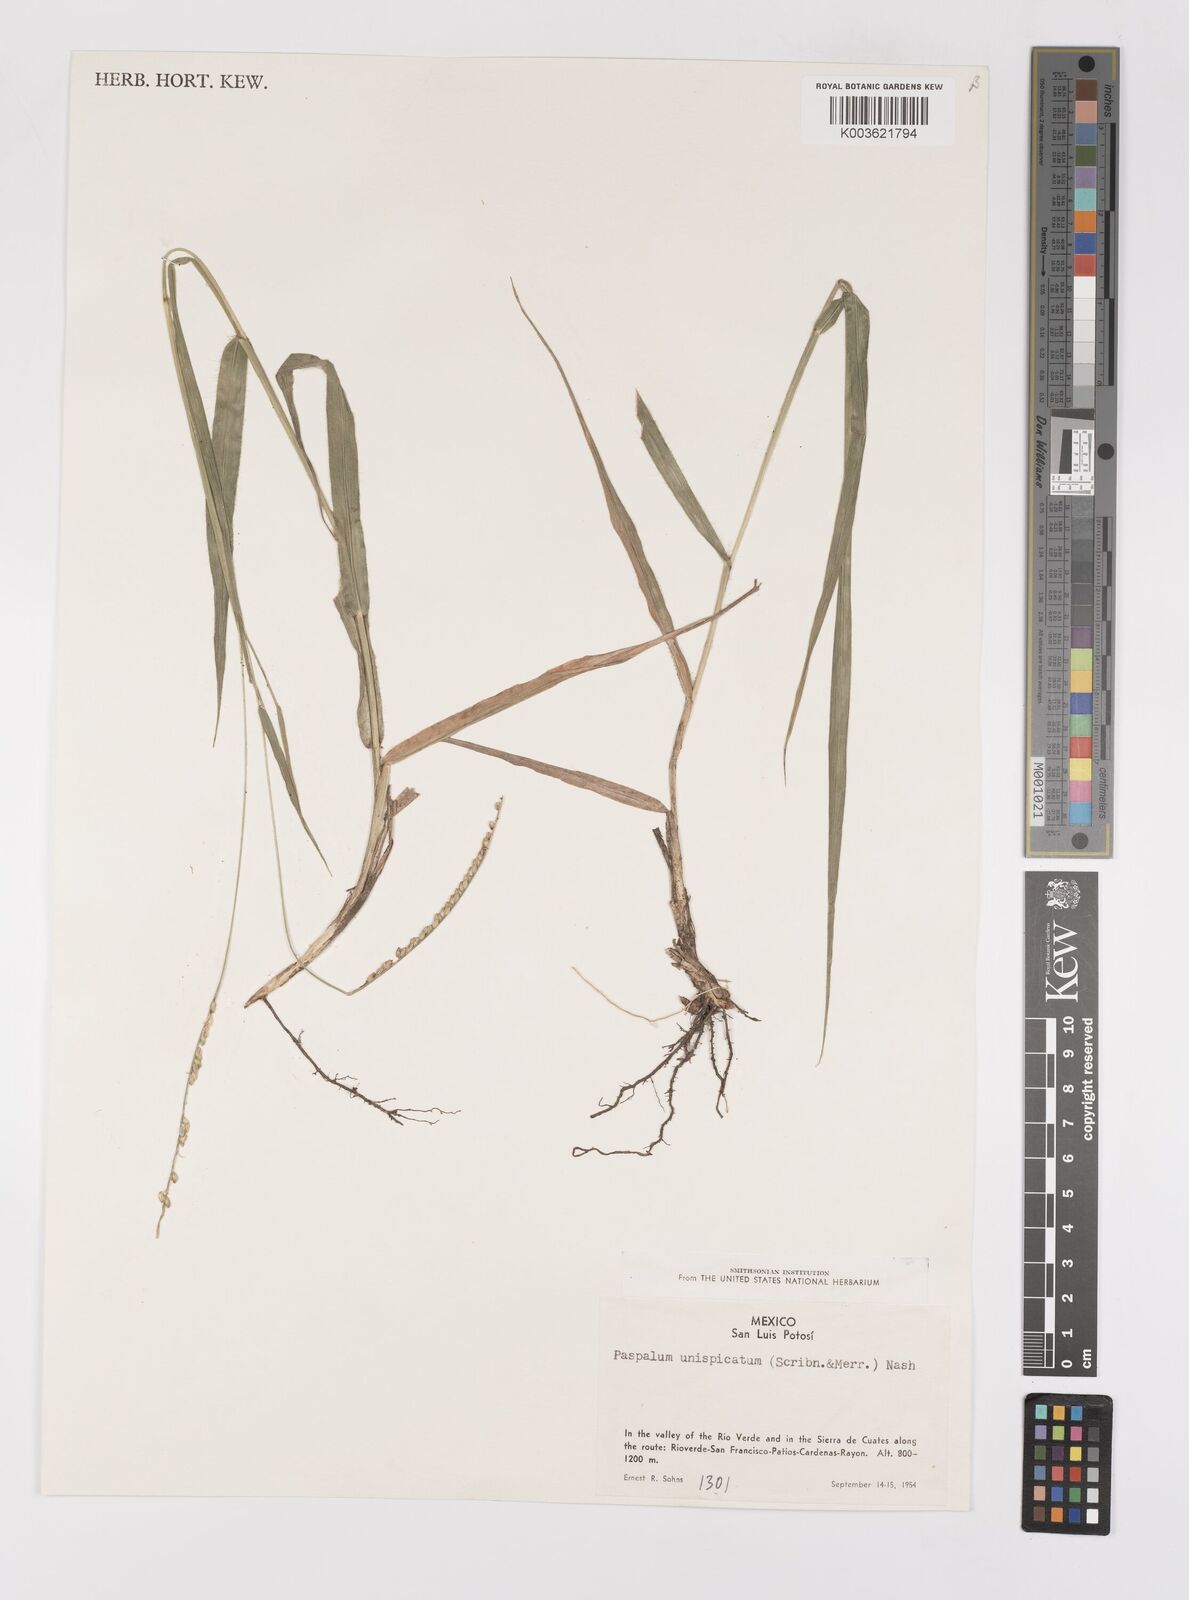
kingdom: Plantae
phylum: Tracheophyta
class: Liliopsida
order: Poales
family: Poaceae
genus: Paspalum
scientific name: Paspalum unispicatum
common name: Onespike paspalum
